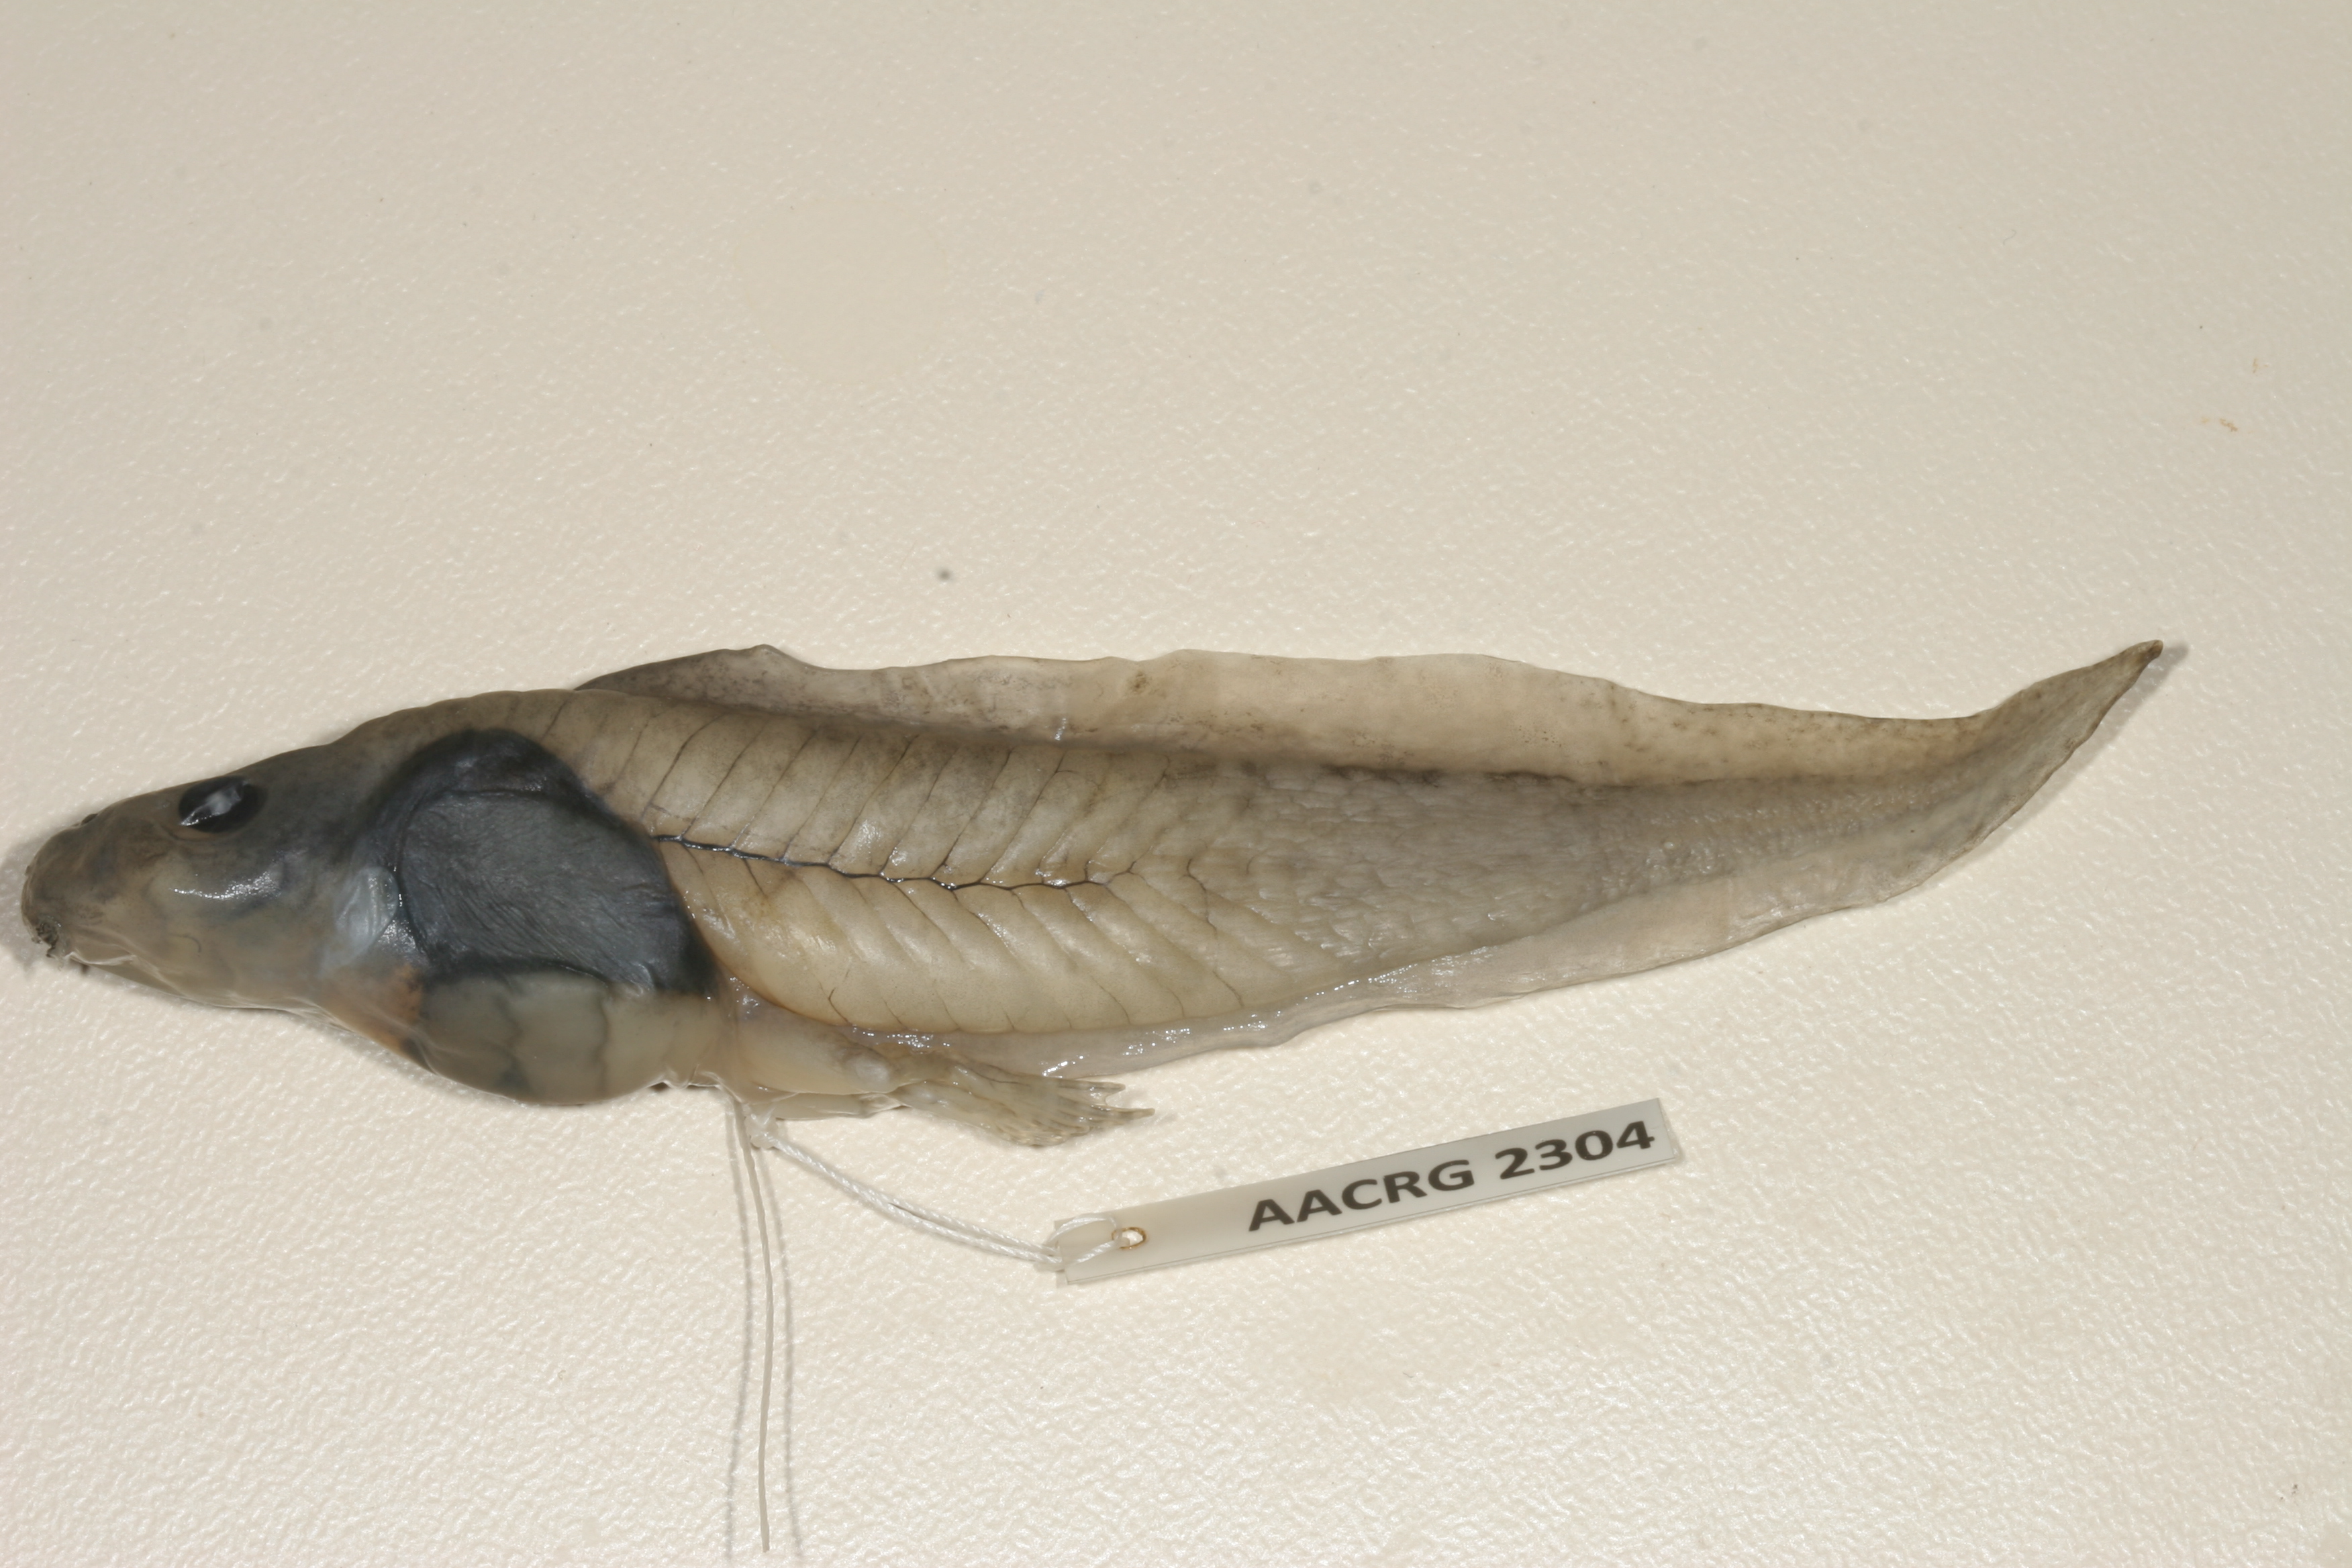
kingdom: Animalia
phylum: Chordata
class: Amphibia
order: Anura
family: Pyxicephalidae
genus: Amietia
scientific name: Amietia poyntoni
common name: Poynton's river frog
